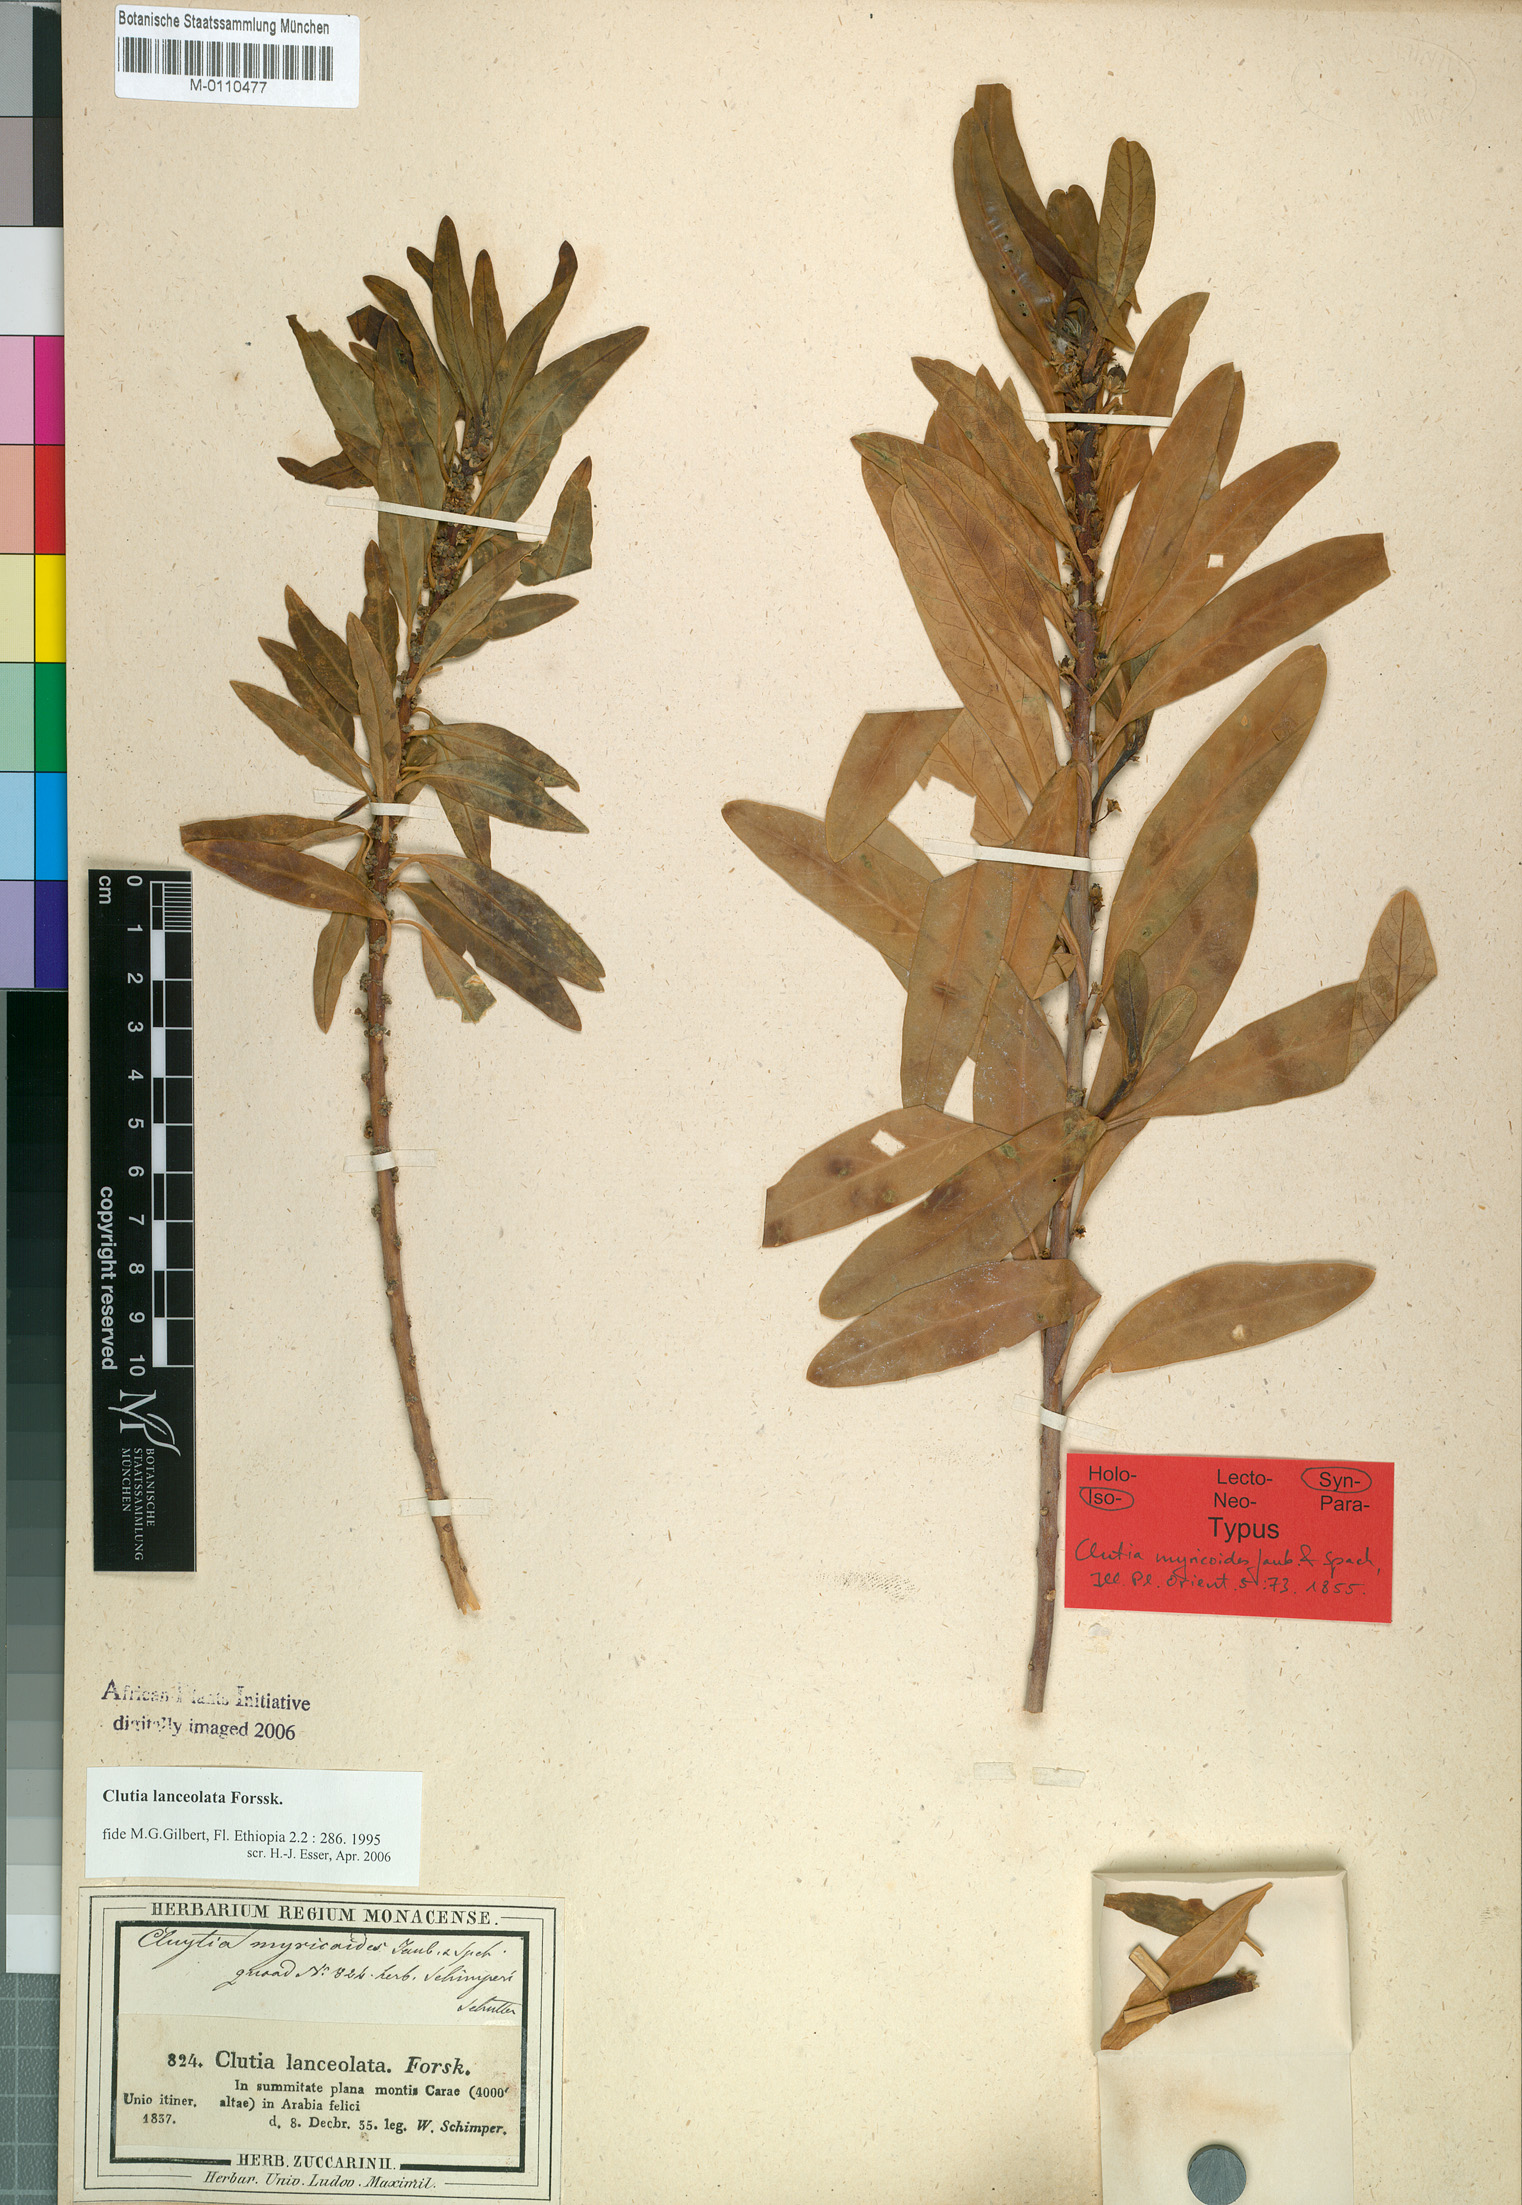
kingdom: Plantae
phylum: Tracheophyta
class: Magnoliopsida
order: Malpighiales
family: Peraceae
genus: Clutia
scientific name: Clutia lanceolata
